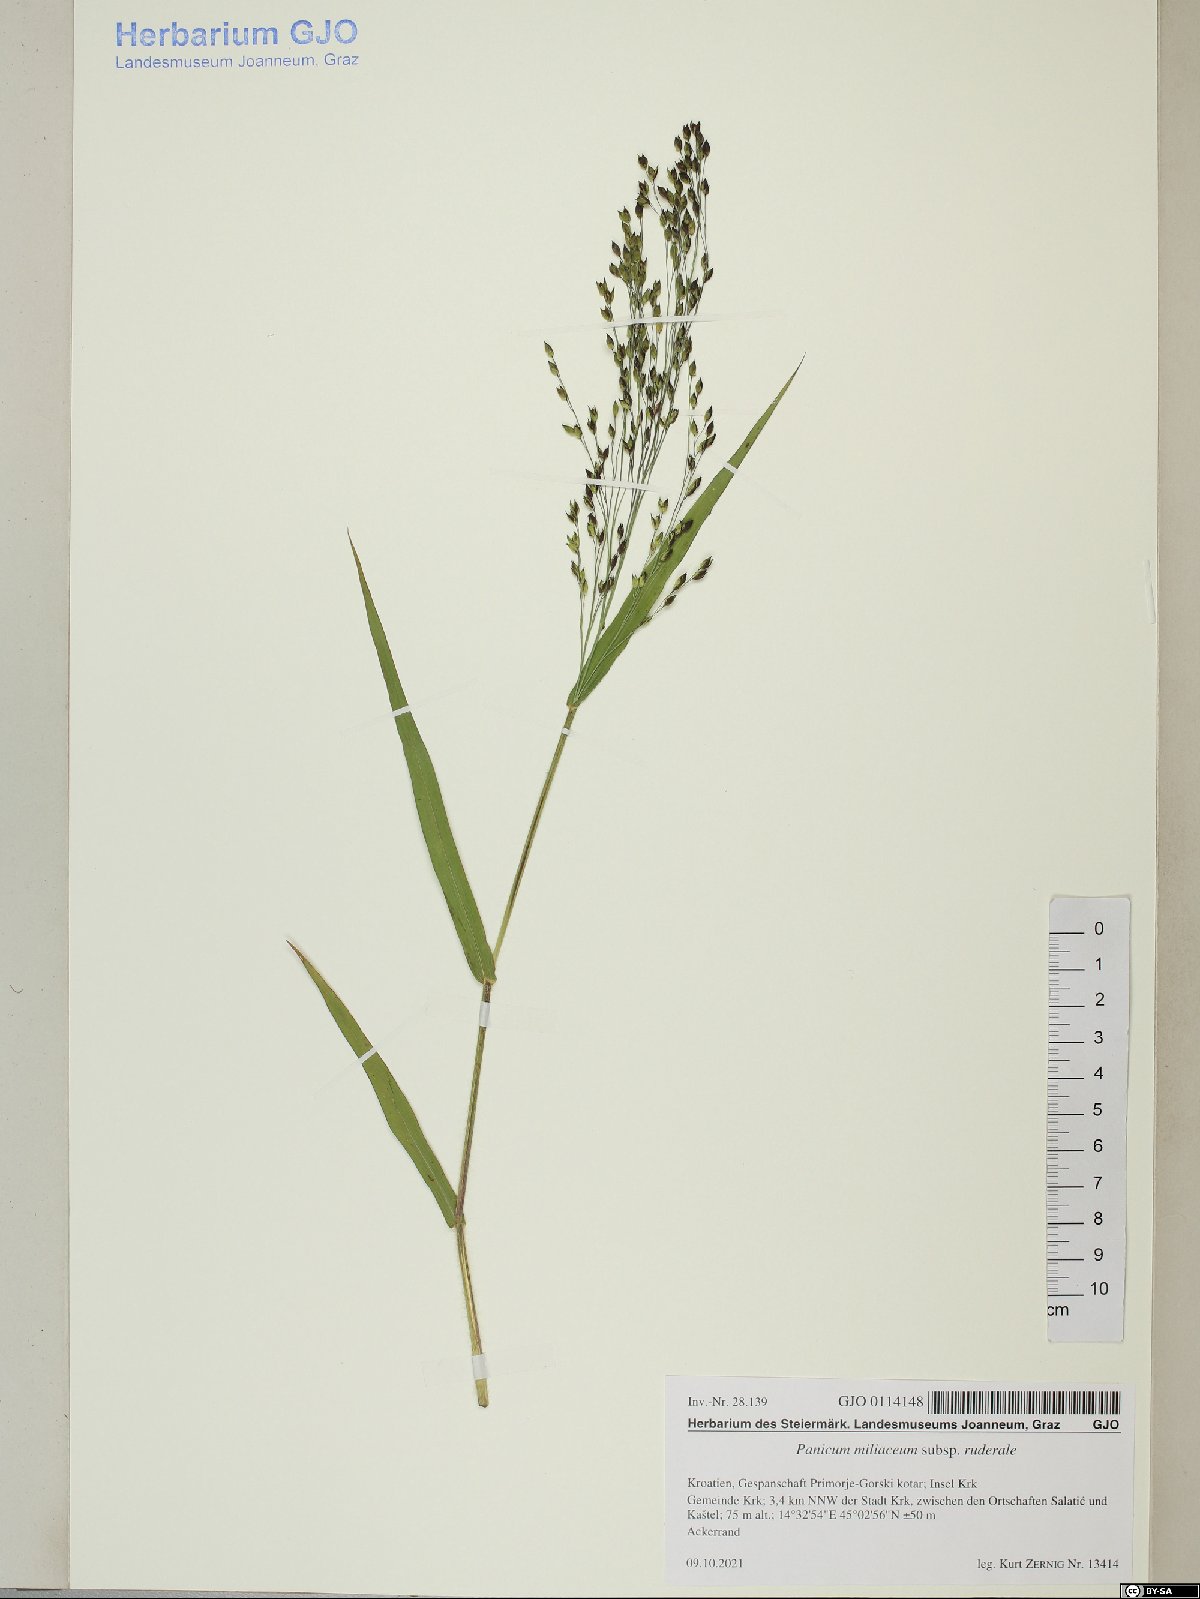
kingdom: Plantae
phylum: Tracheophyta
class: Liliopsida
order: Poales
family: Poaceae
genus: Panicum
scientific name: Panicum miliaceum
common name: Common millet
